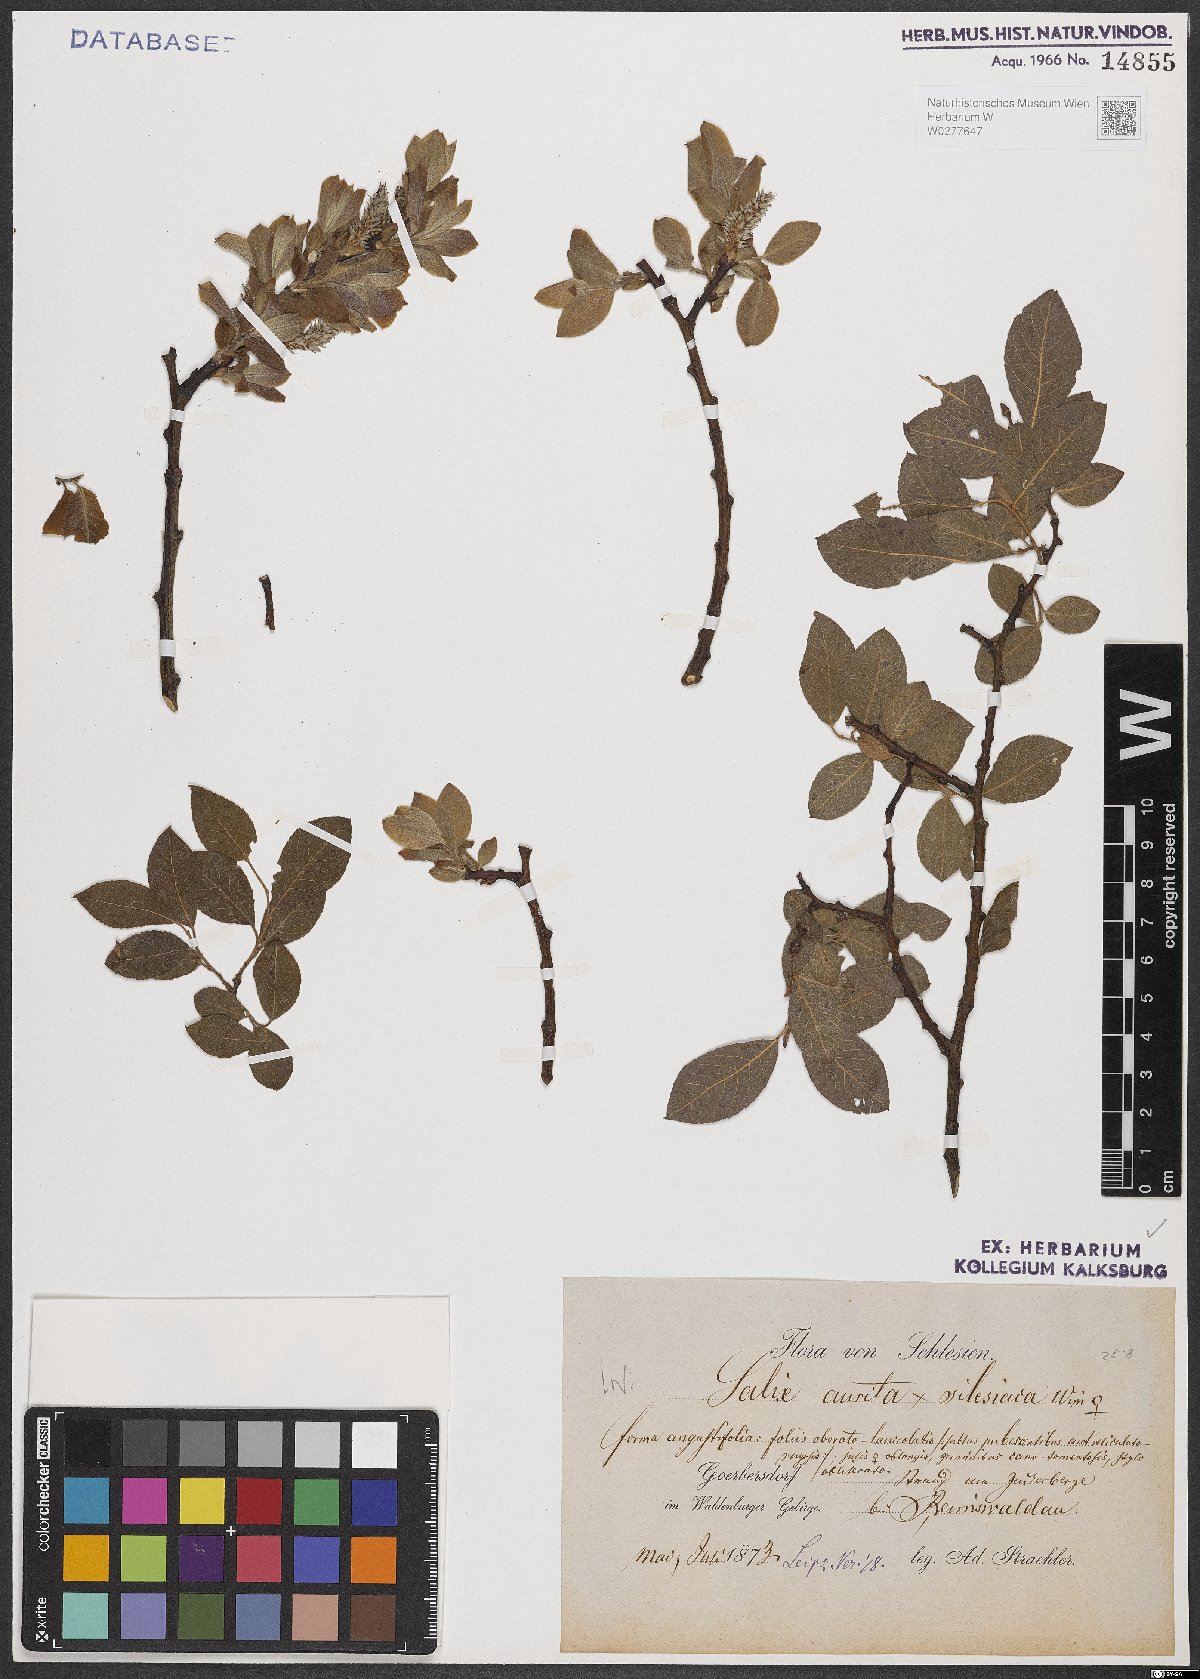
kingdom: Plantae
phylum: Tracheophyta
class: Magnoliopsida
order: Malpighiales
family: Salicaceae
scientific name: Salicaceae
